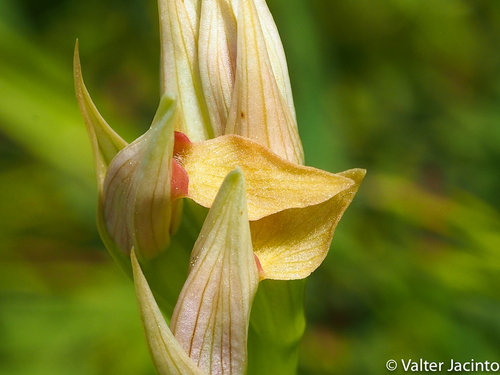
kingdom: Plantae
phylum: Tracheophyta
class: Liliopsida
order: Asparagales
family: Orchidaceae
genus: Serapias
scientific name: Serapias parviflora
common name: Small-flowered tongue-orchid
